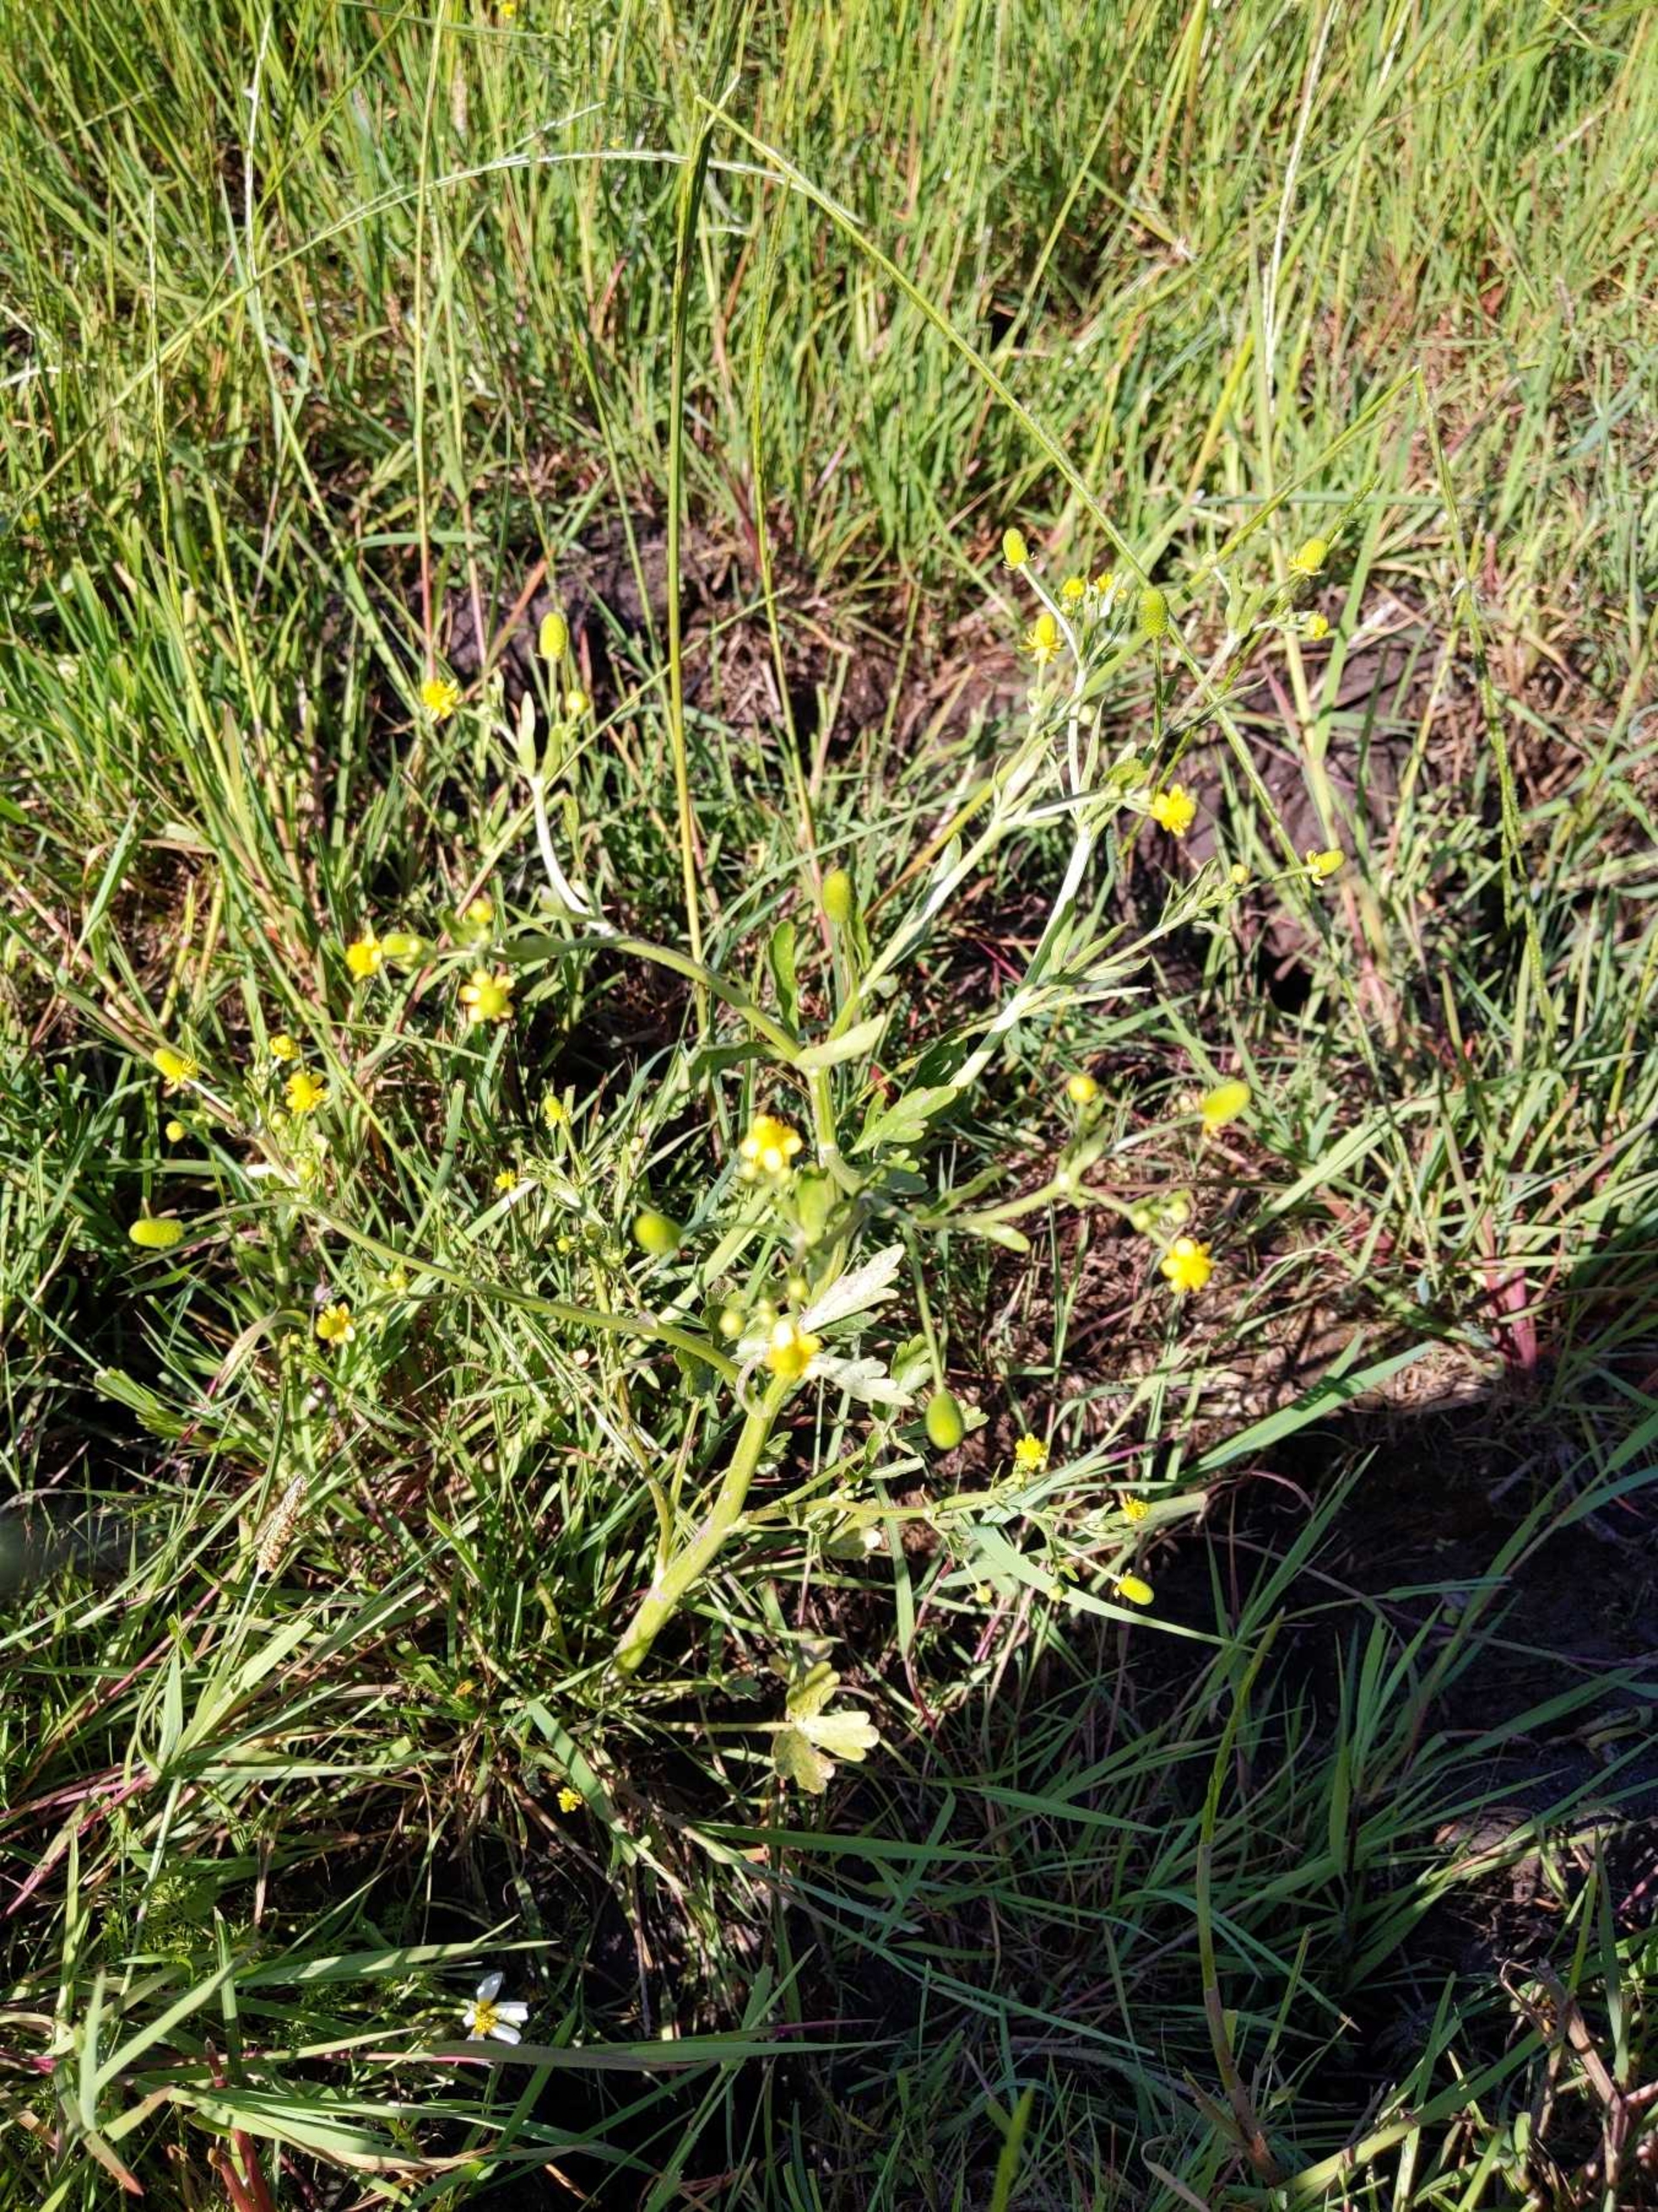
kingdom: Plantae
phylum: Tracheophyta
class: Magnoliopsida
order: Ranunculales
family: Ranunculaceae
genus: Ranunculus
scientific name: Ranunculus sceleratus
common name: Tigger-ranunkel
